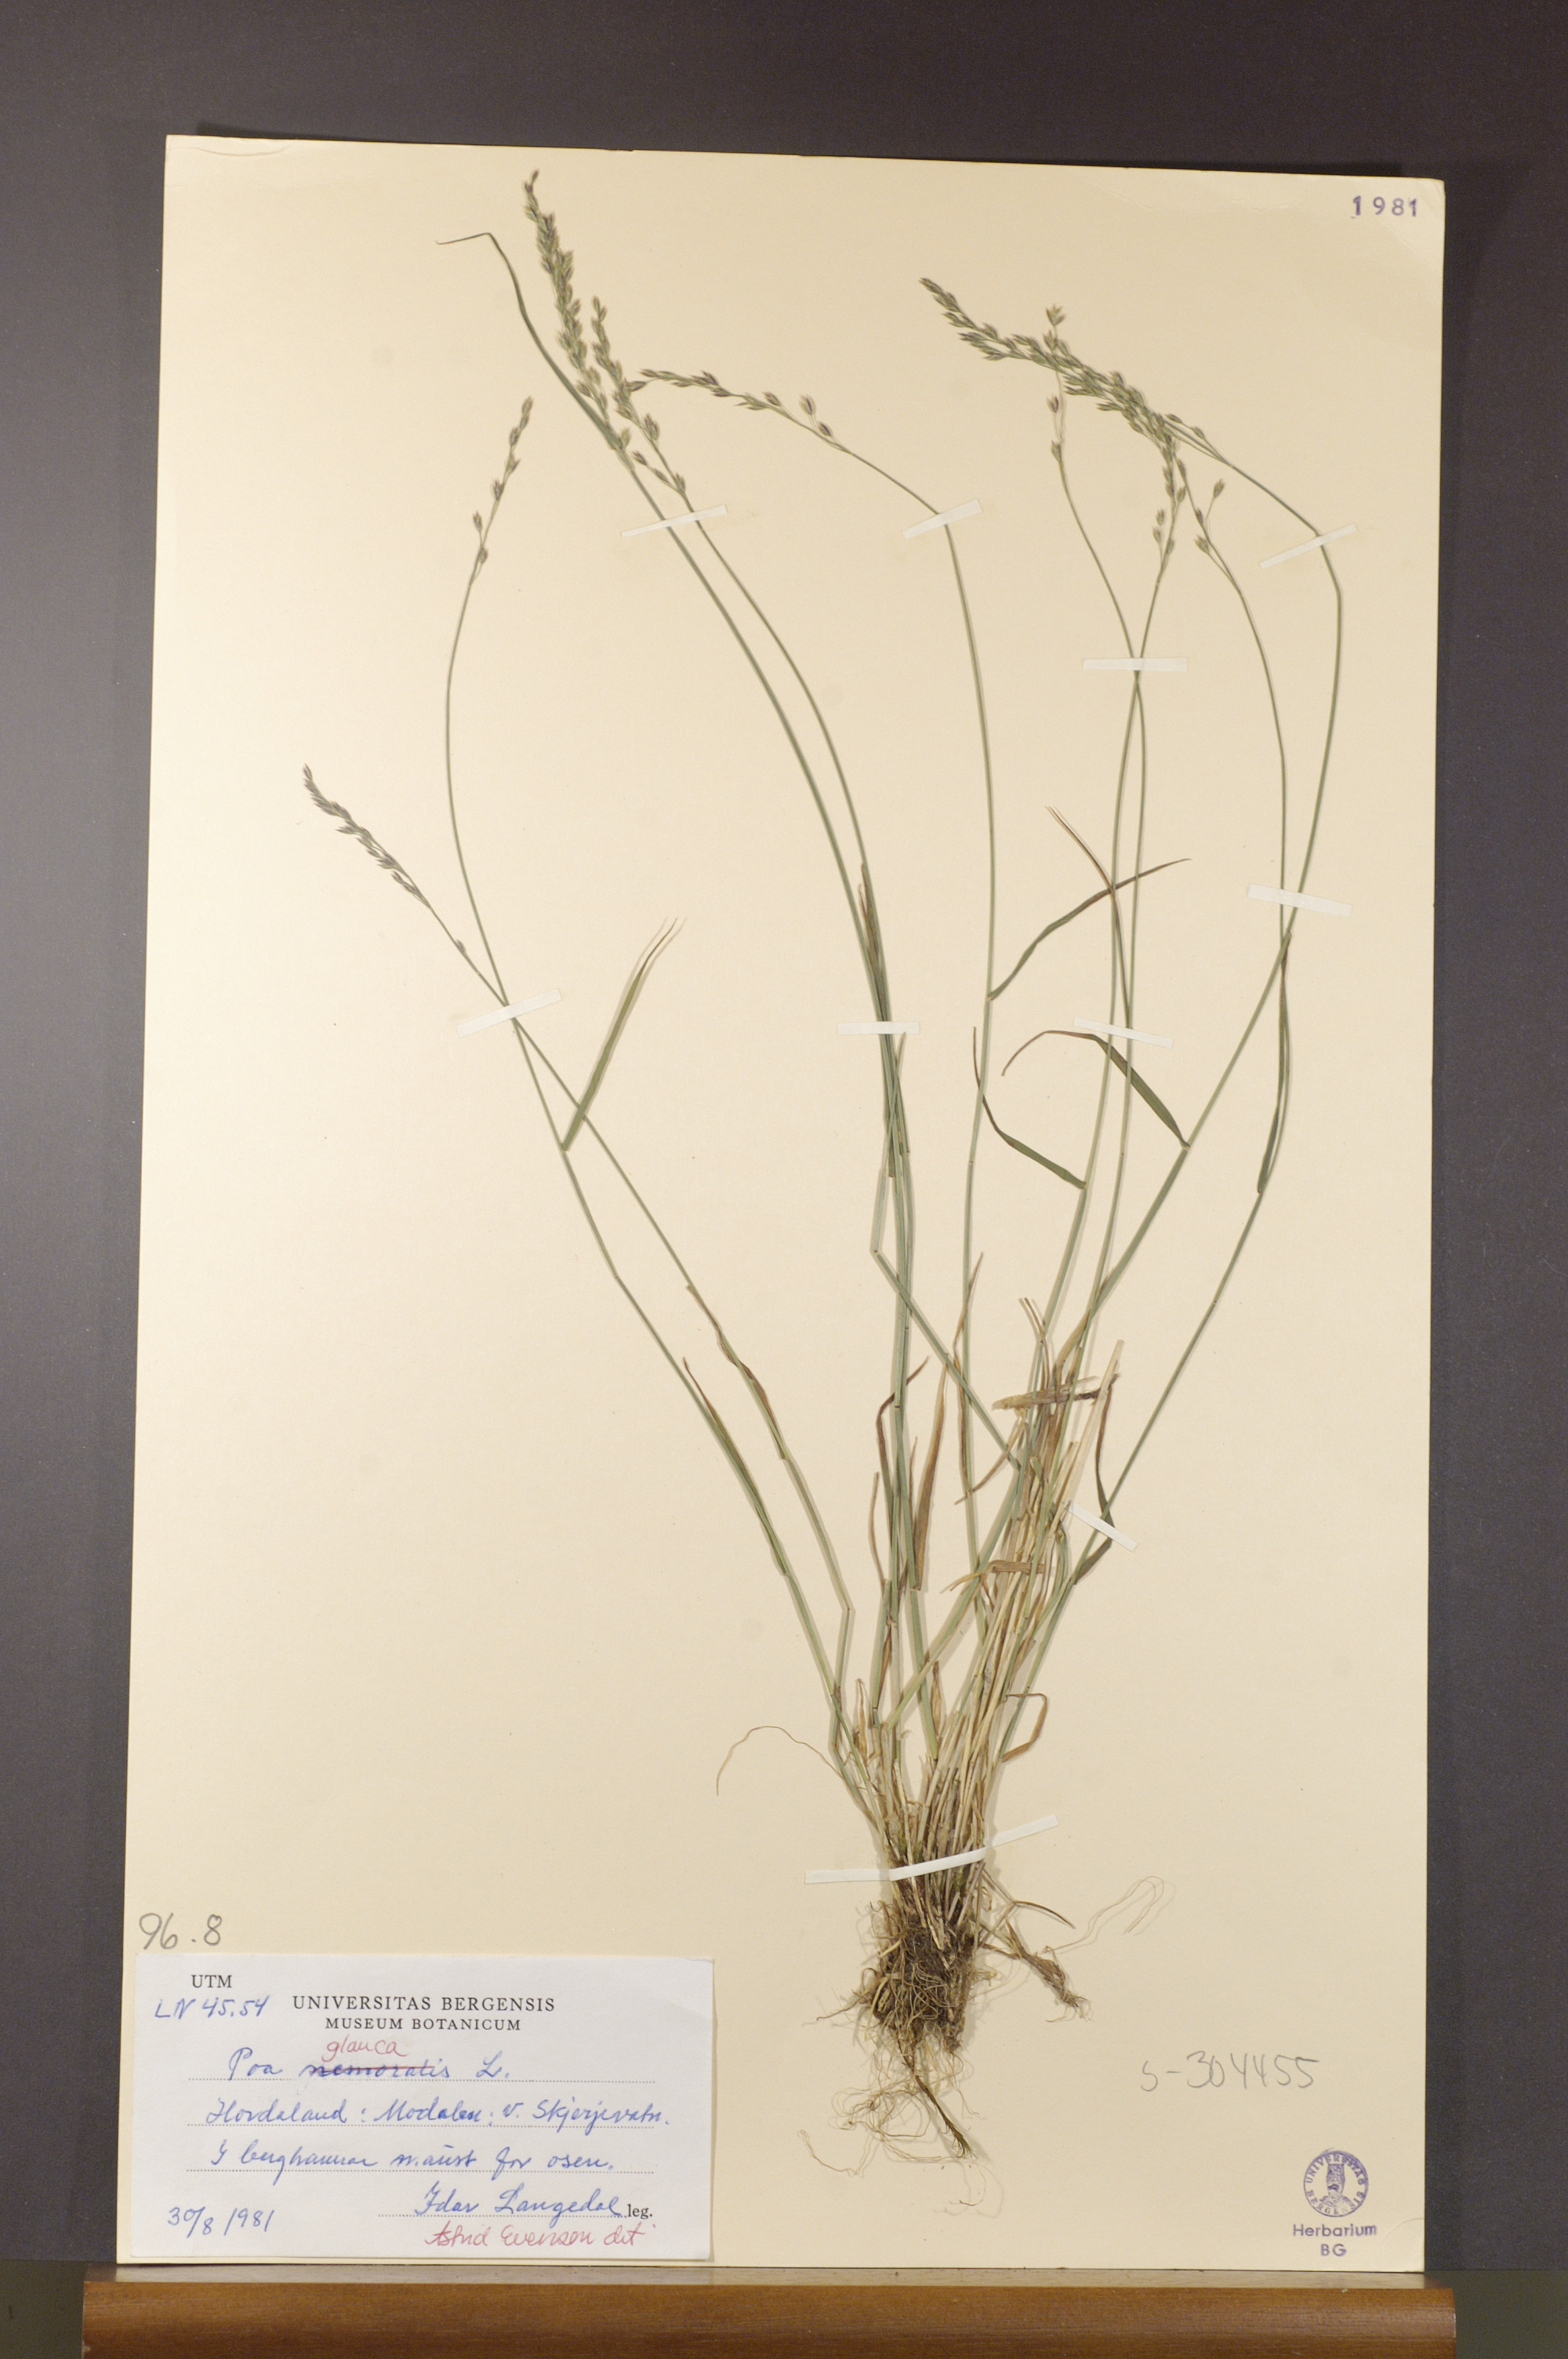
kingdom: Plantae
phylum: Tracheophyta
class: Liliopsida
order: Poales
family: Poaceae
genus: Poa
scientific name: Poa glauca
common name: Glaucous bluegrass
